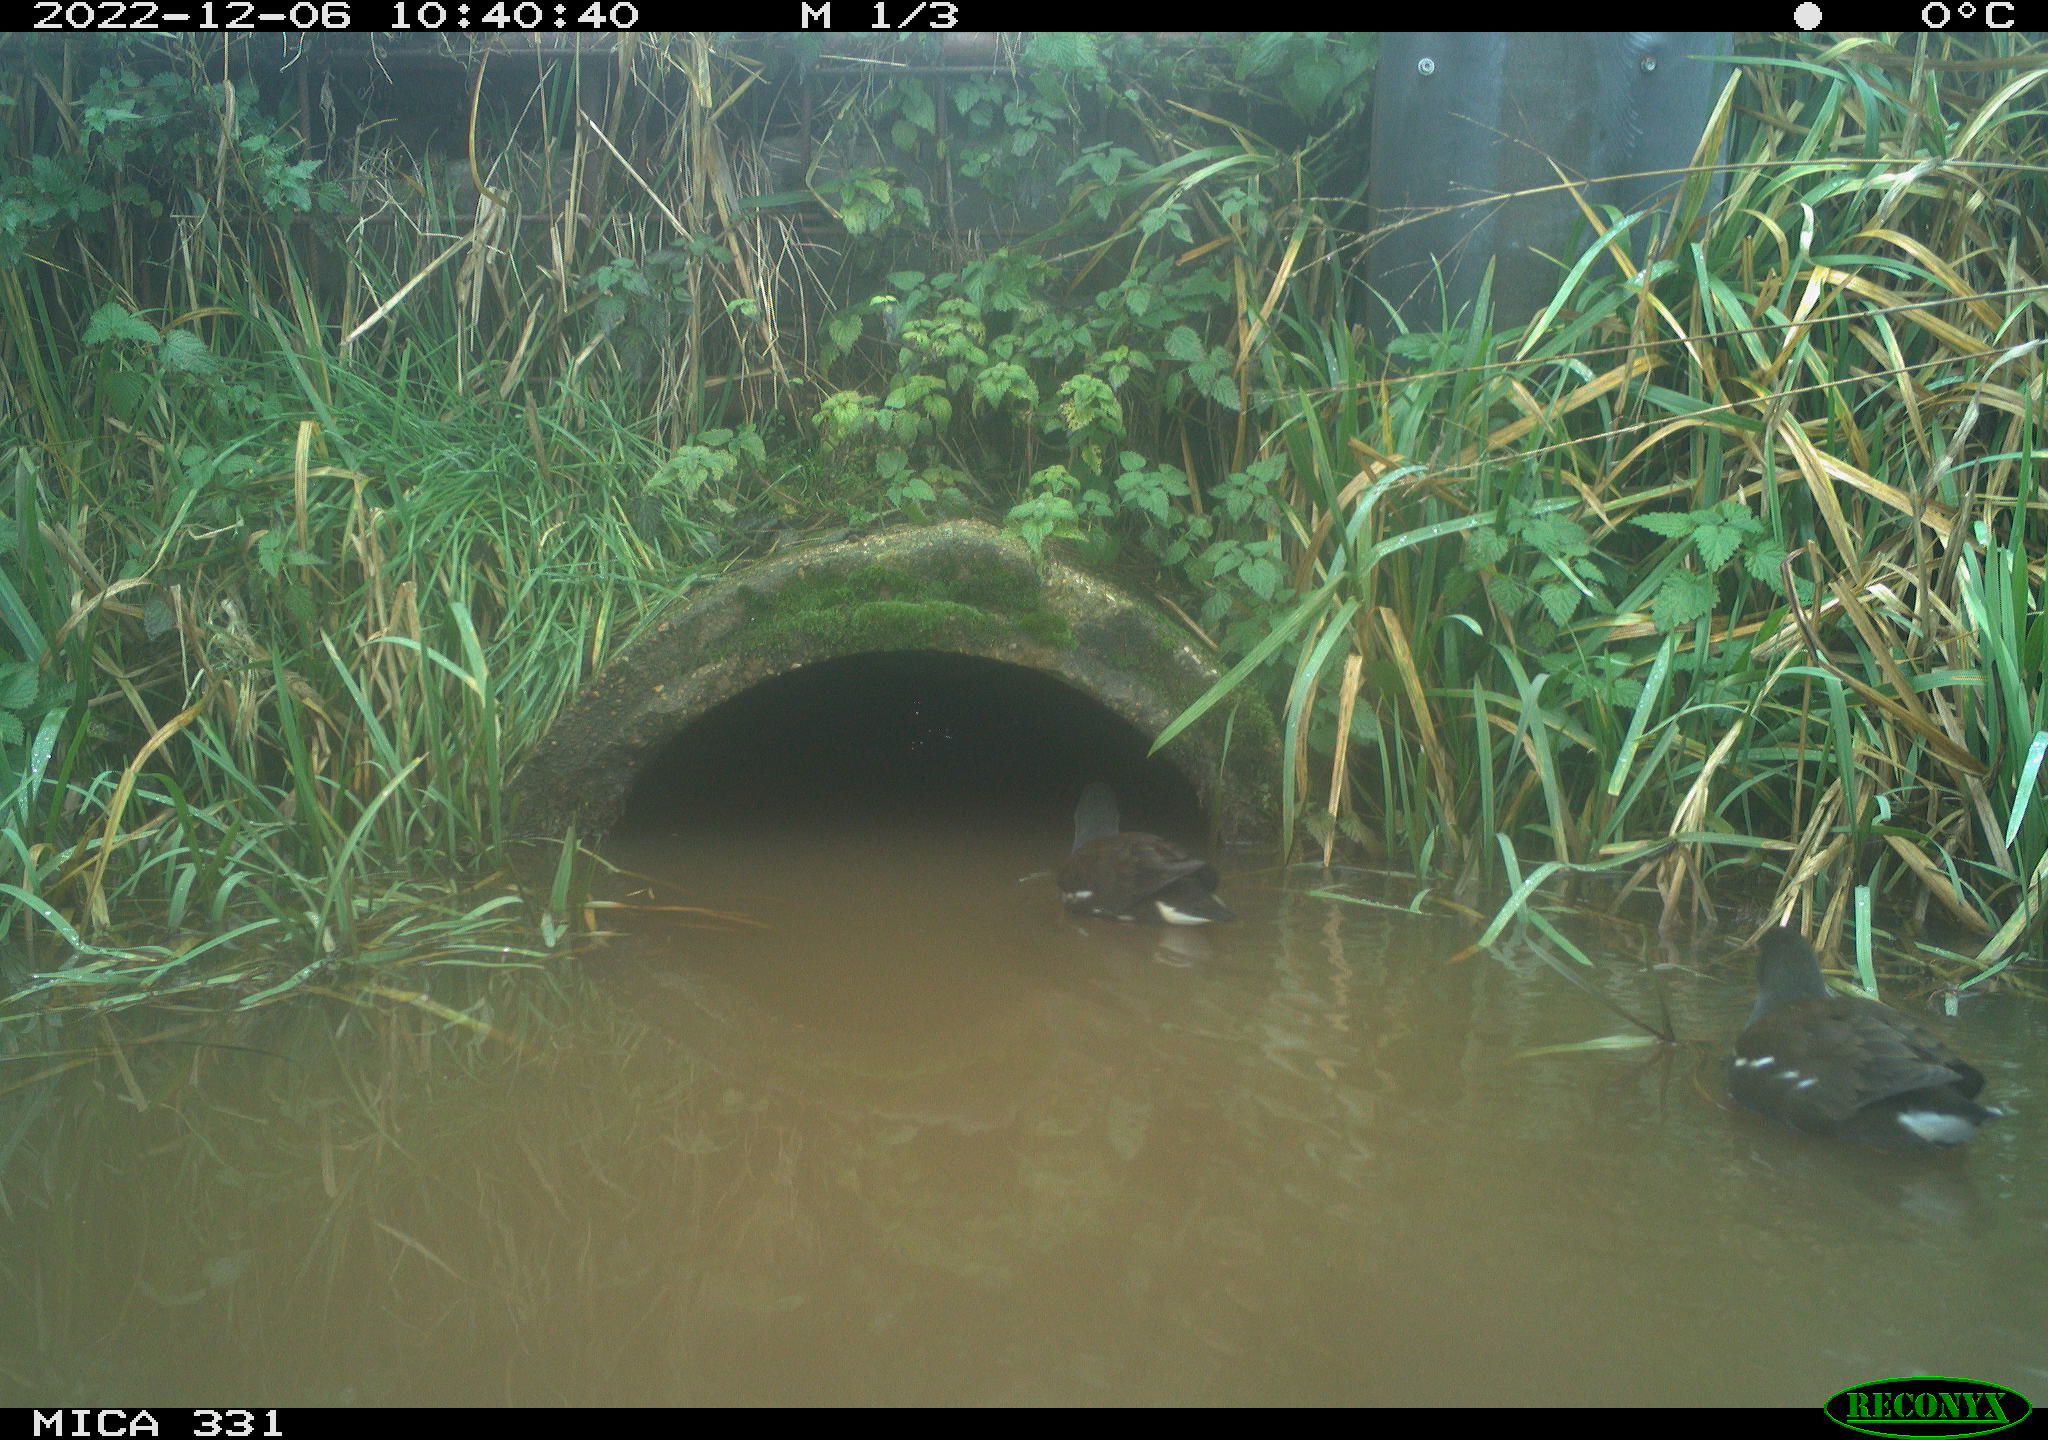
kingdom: Animalia
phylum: Chordata
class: Aves
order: Gruiformes
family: Rallidae
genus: Gallinula
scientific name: Gallinula chloropus
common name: Common moorhen
